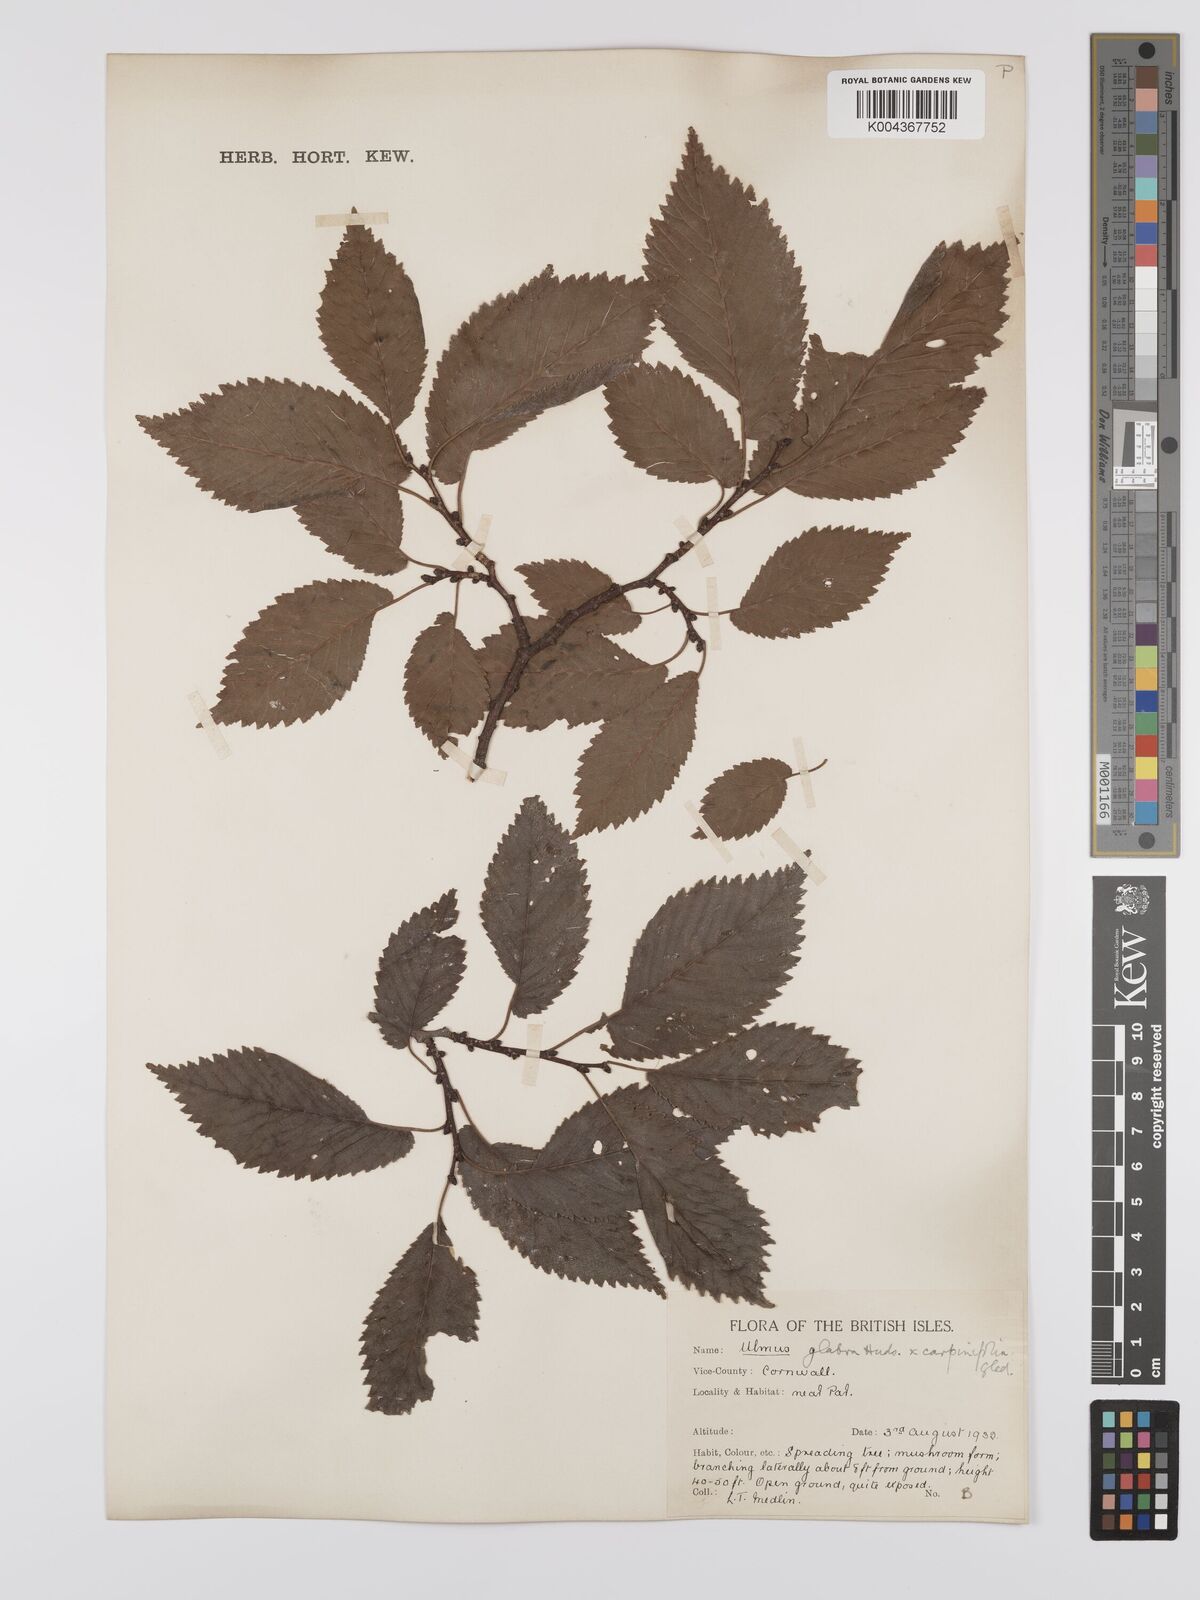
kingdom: Plantae
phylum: Tracheophyta
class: Magnoliopsida
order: Rosales
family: Ulmaceae
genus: Ulmus
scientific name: Ulmus minor
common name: Small-leaved elm
